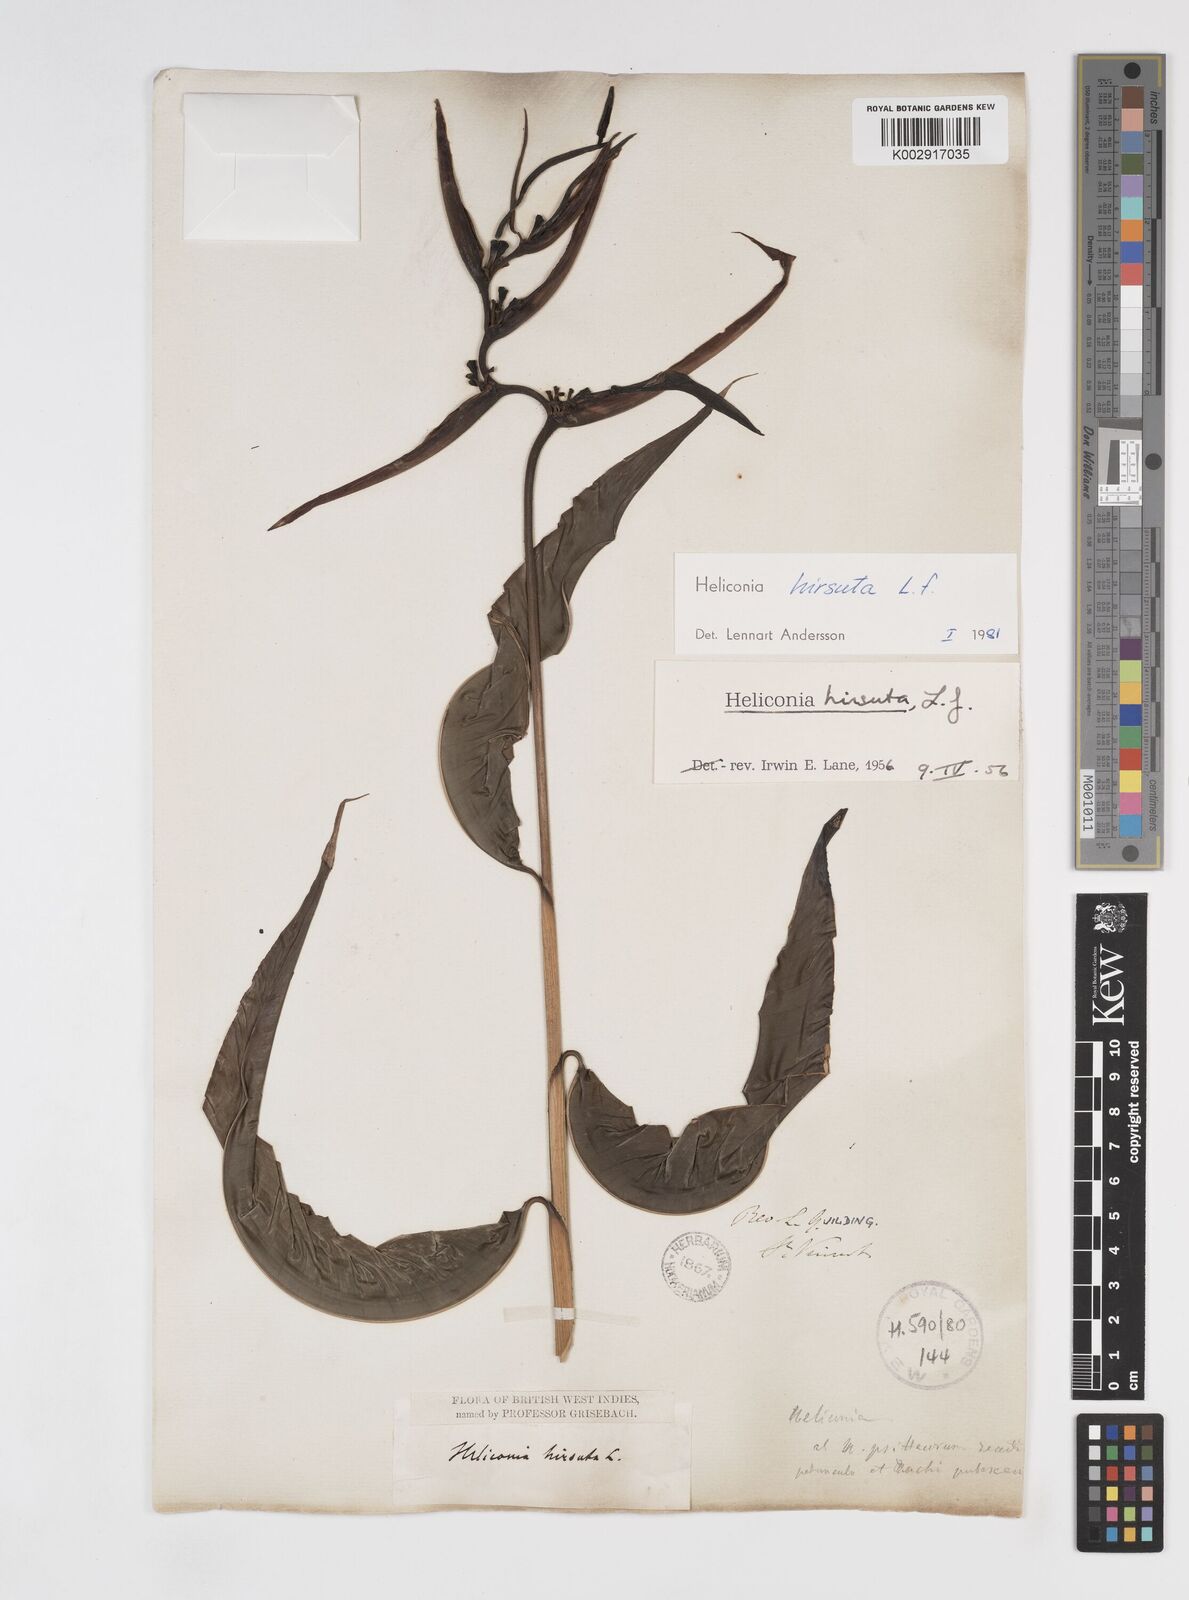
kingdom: Plantae
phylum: Tracheophyta
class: Liliopsida
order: Zingiberales
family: Heliconiaceae
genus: Heliconia
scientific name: Heliconia
